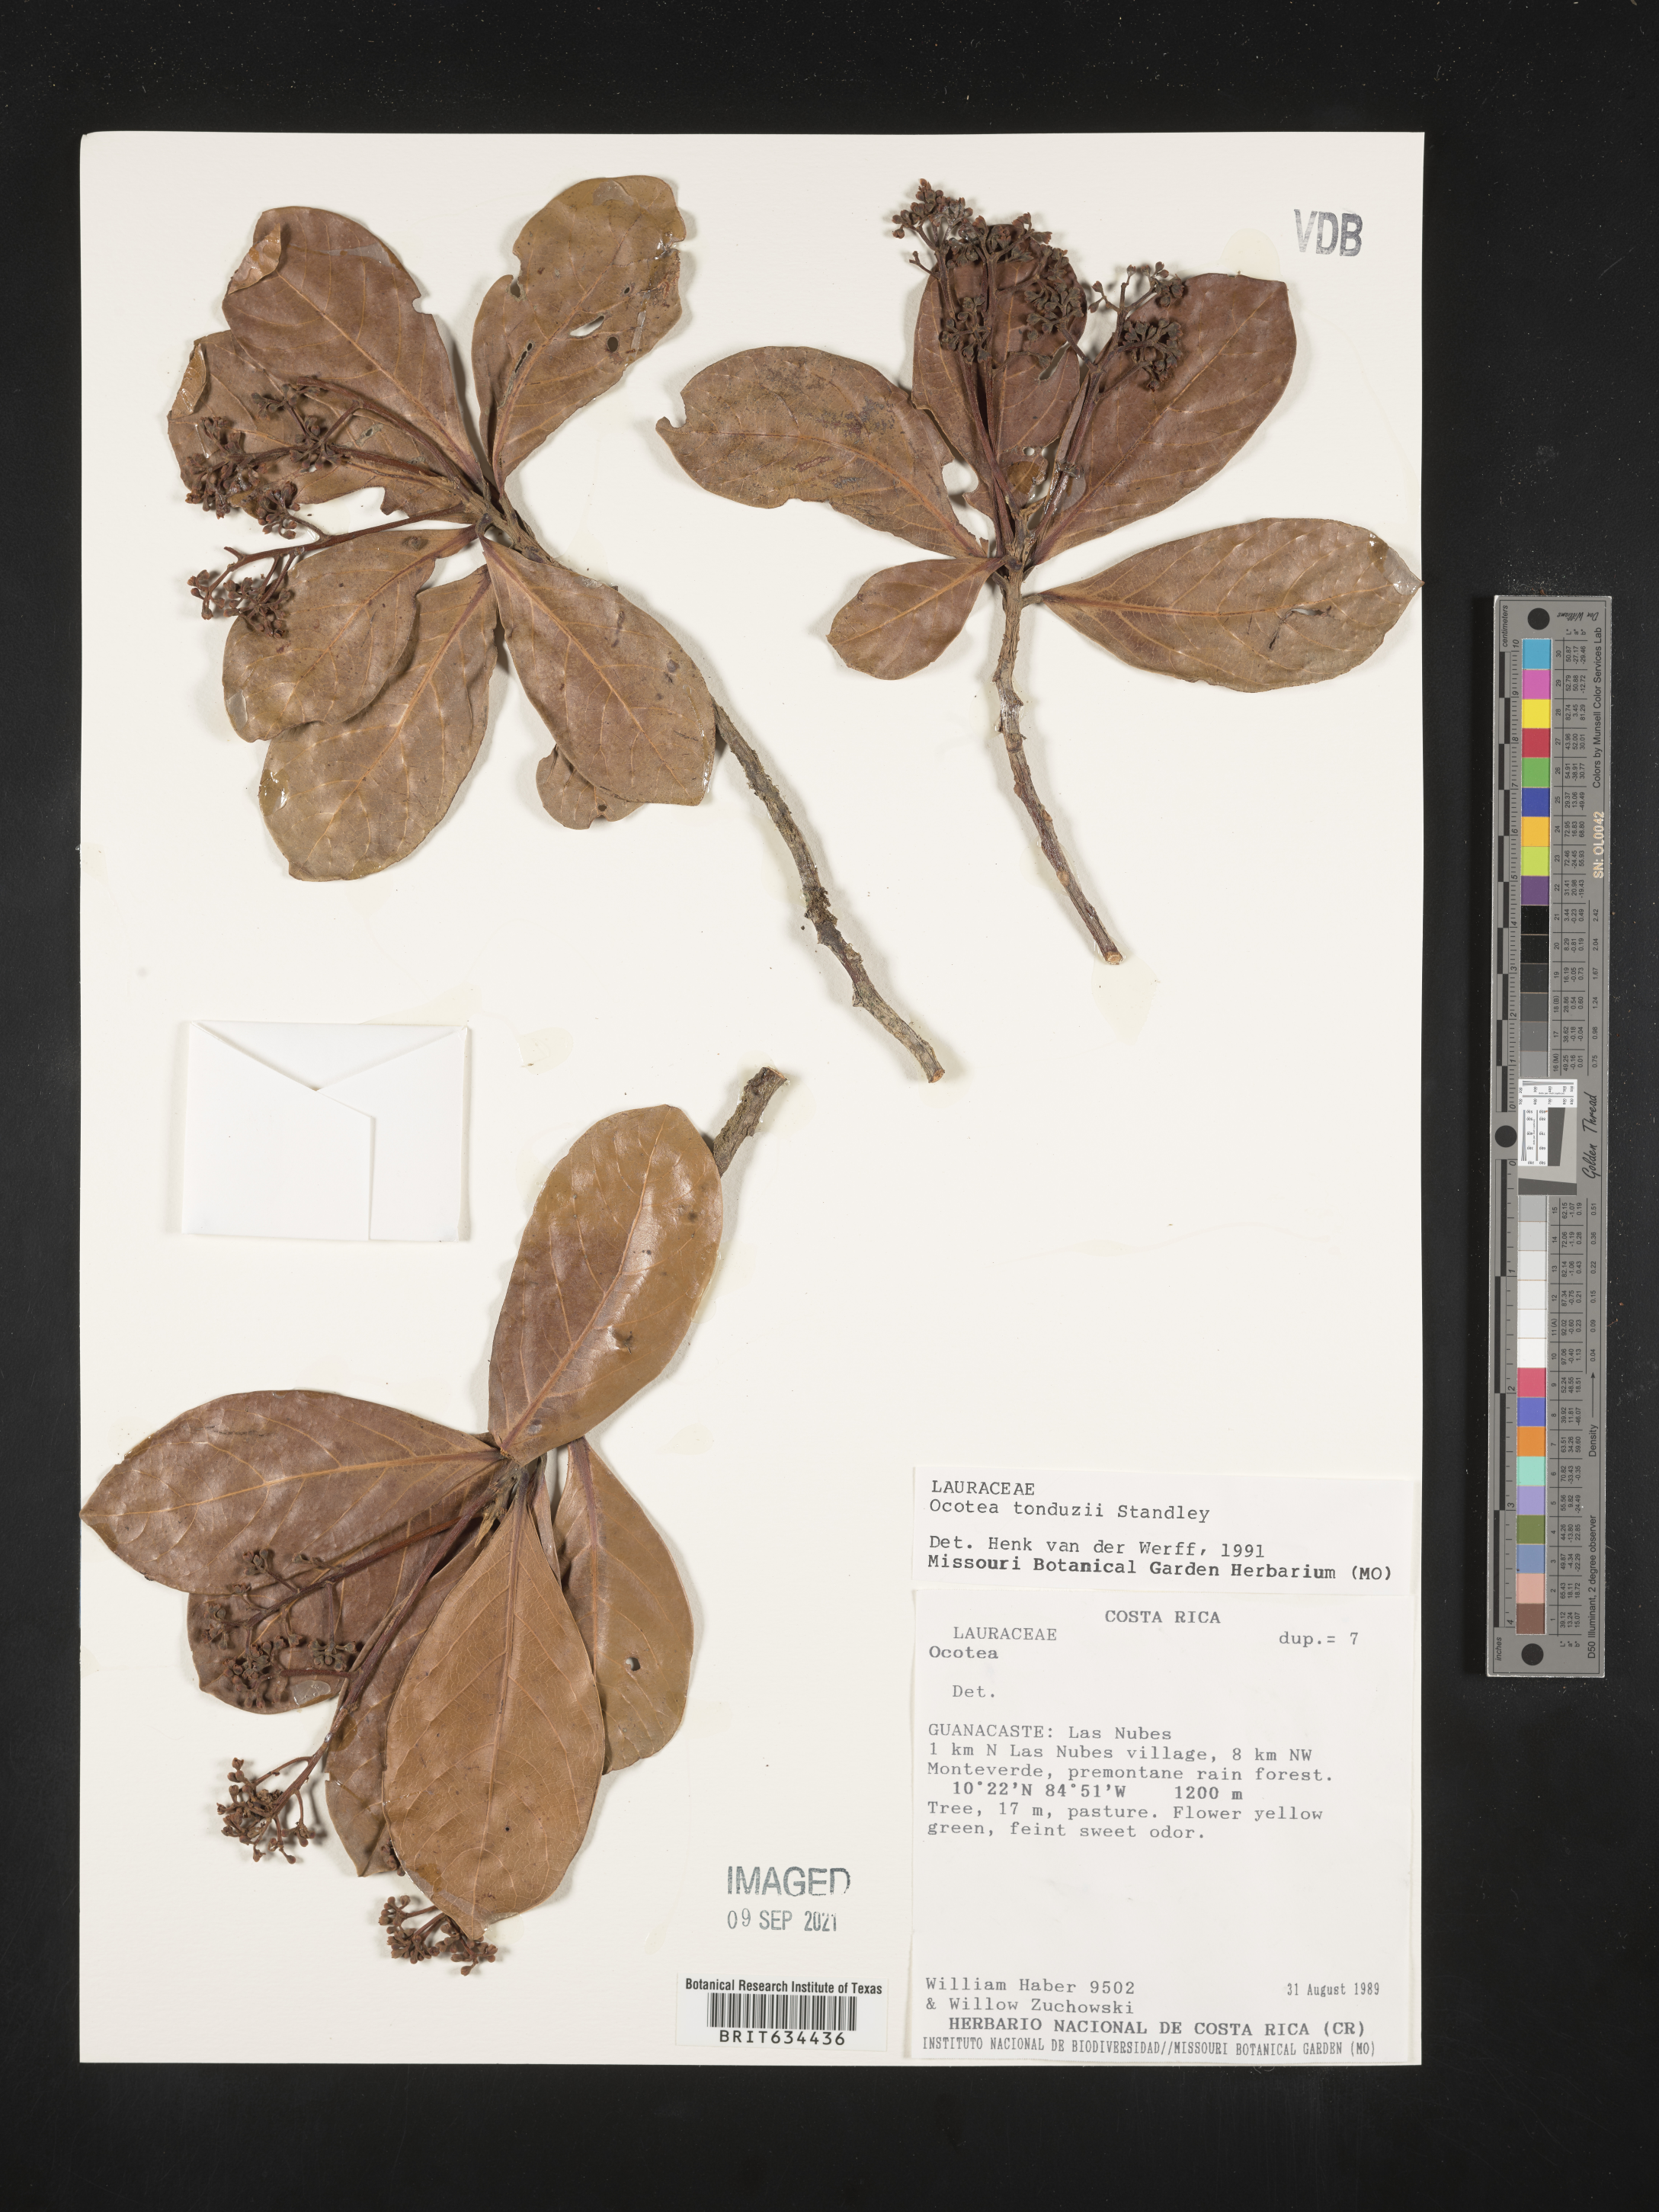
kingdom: Plantae
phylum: Tracheophyta
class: Magnoliopsida
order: Laurales
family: Lauraceae
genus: Ocotea
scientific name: Ocotea
